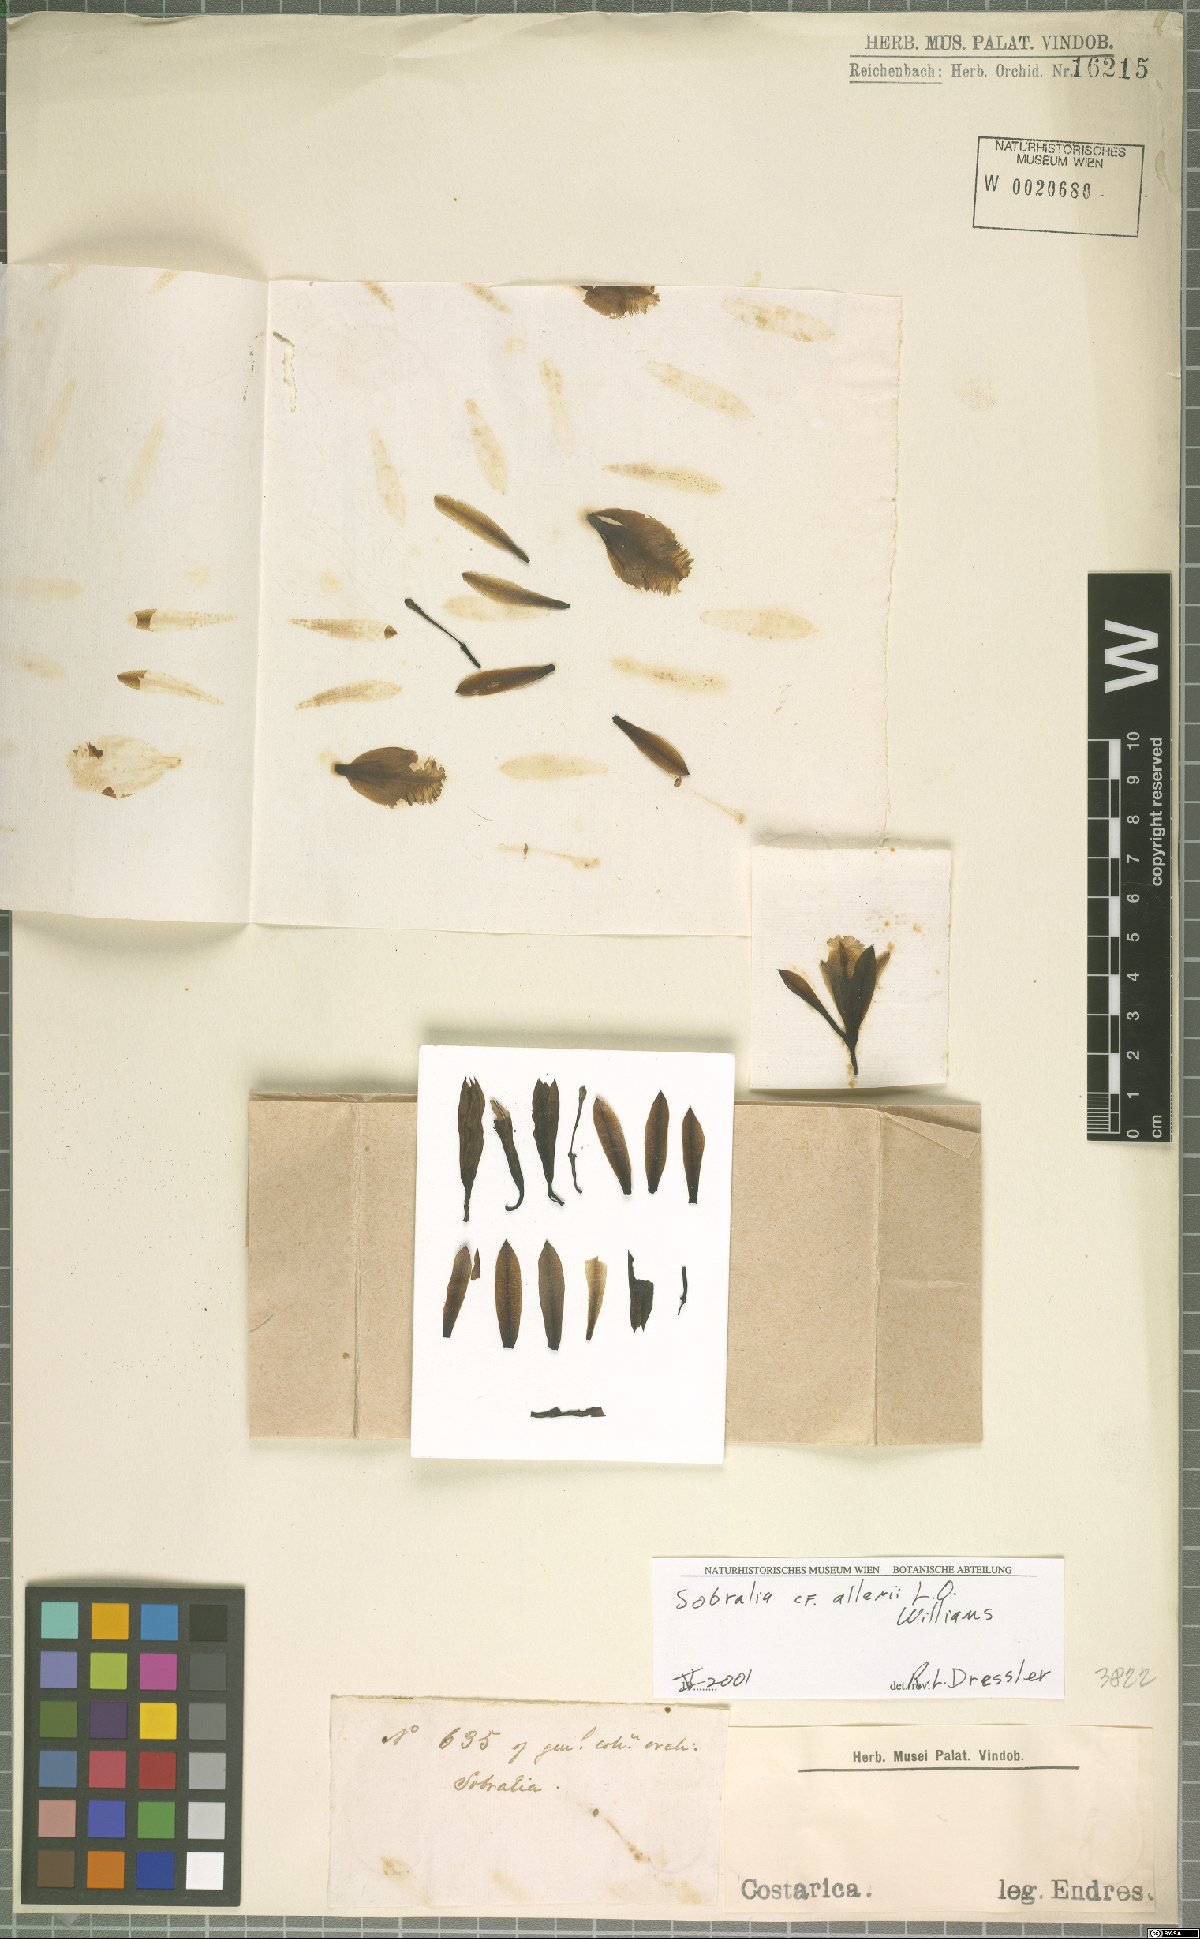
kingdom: Plantae
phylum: Tracheophyta
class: Liliopsida
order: Asparagales
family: Orchidaceae
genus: Sobralia
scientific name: Sobralia allenii
